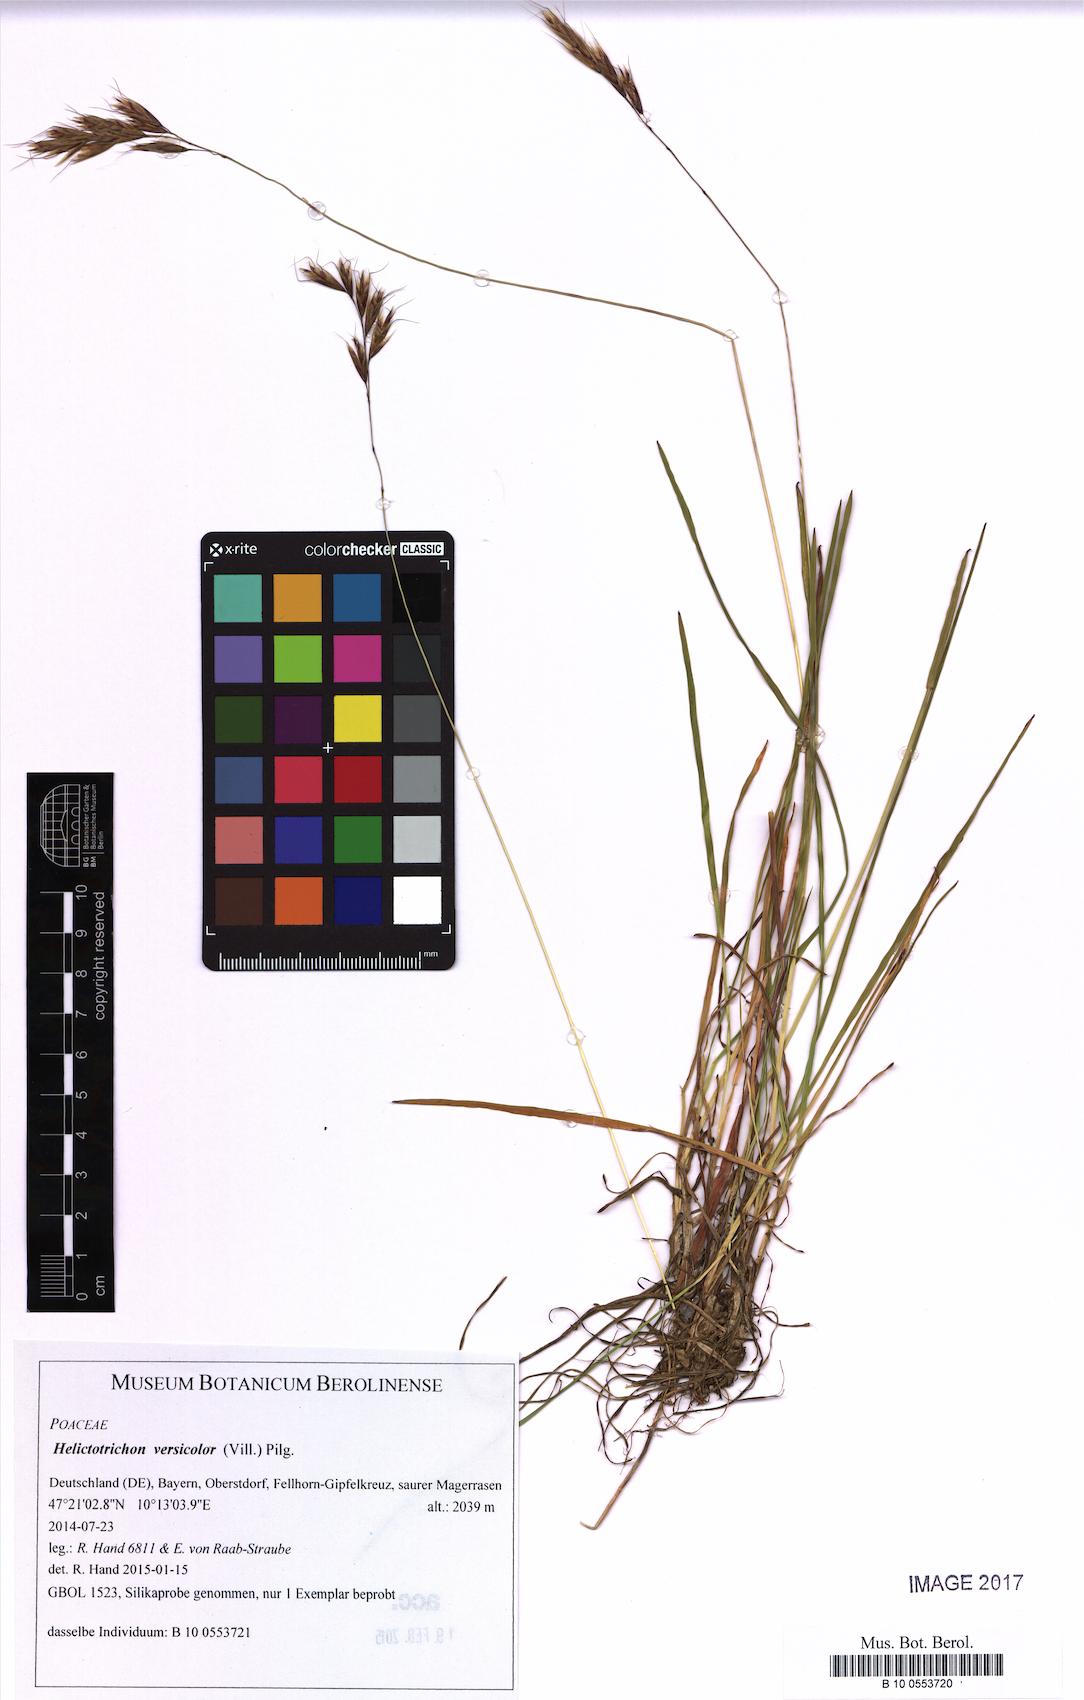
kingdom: Plantae
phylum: Tracheophyta
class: Liliopsida
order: Poales
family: Poaceae
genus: Helictochloa
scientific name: Helictochloa versicolor
